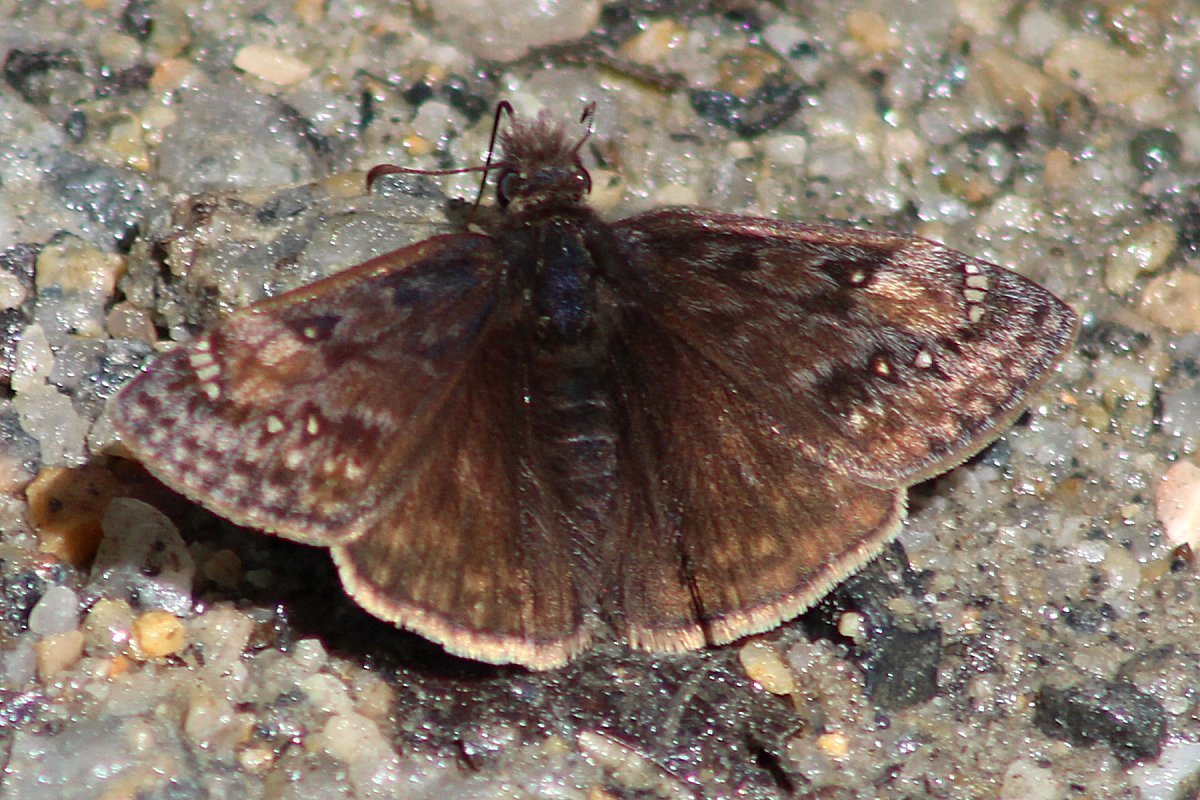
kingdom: Animalia
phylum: Arthropoda
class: Insecta
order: Lepidoptera
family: Hesperiidae
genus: Gesta
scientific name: Gesta
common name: Juvenal's Duskywing
